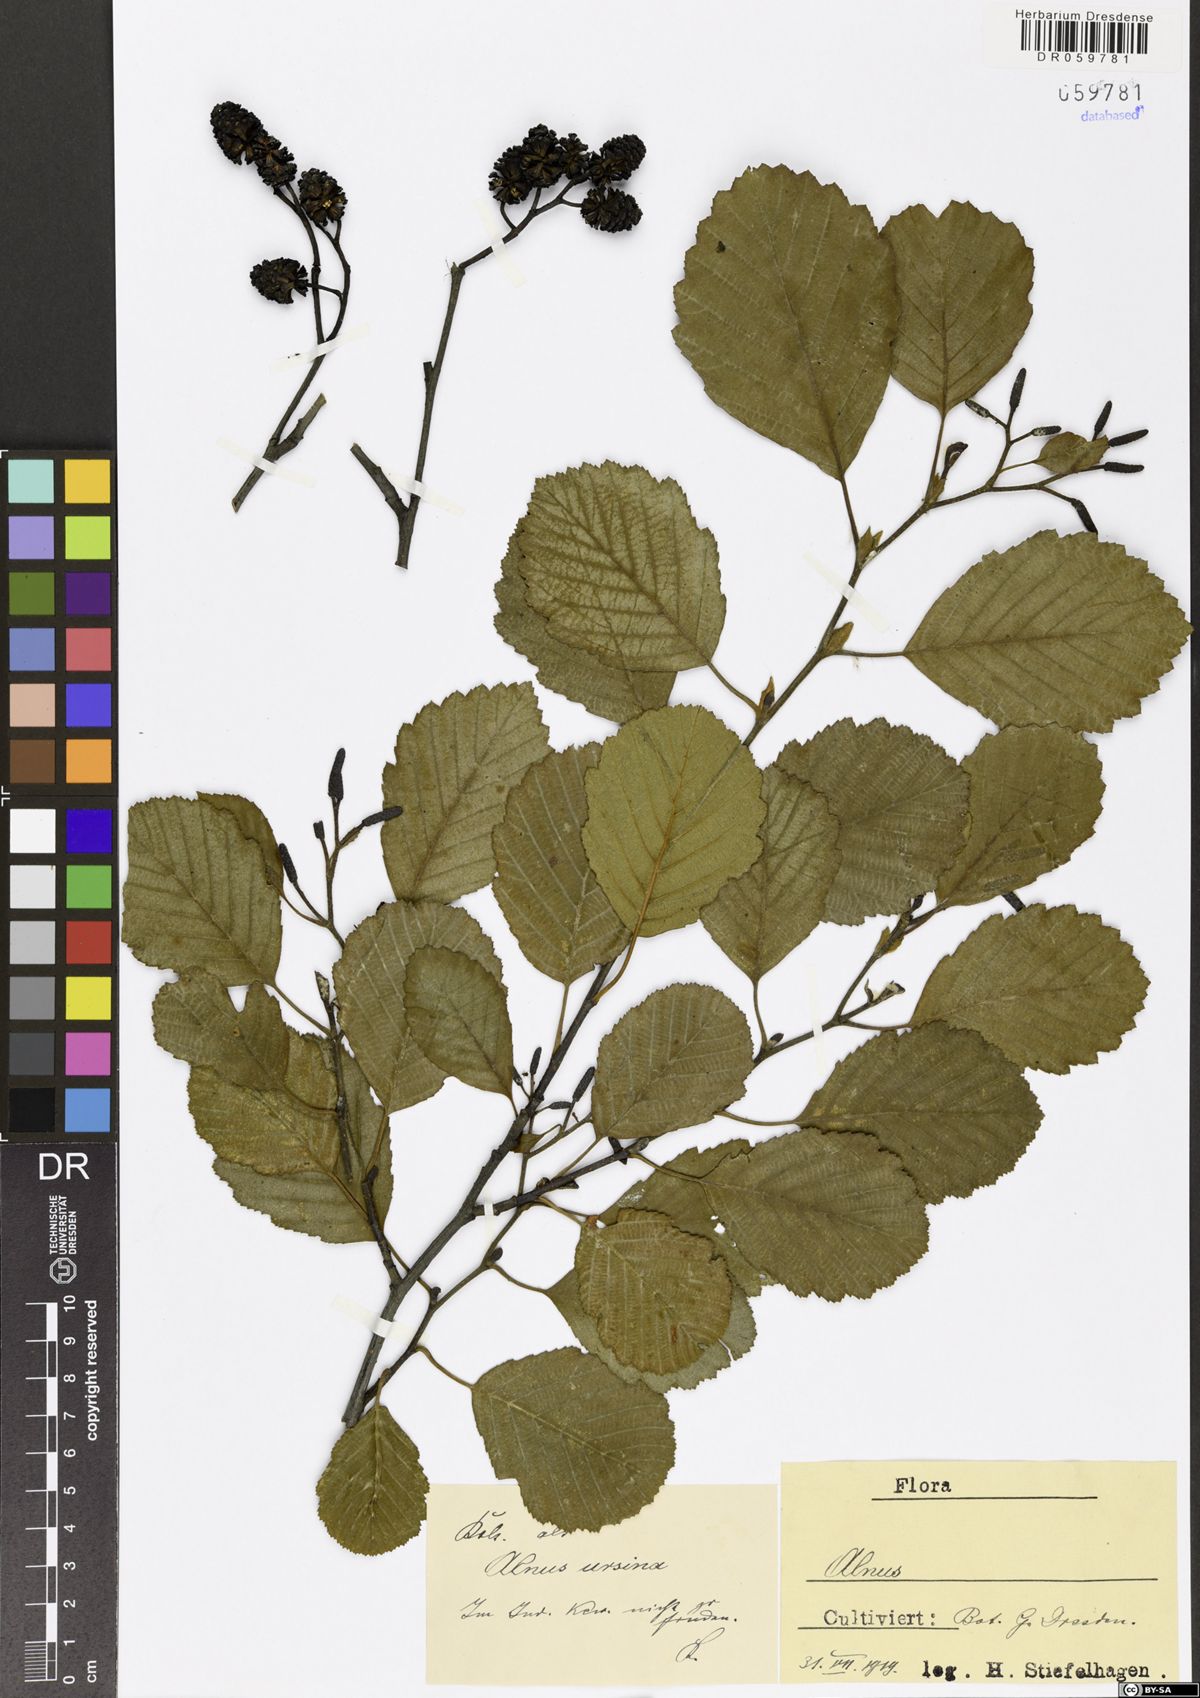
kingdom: Plantae
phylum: Tracheophyta
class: Magnoliopsida
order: Fagales
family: Betulaceae
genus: Alnus
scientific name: Alnus
